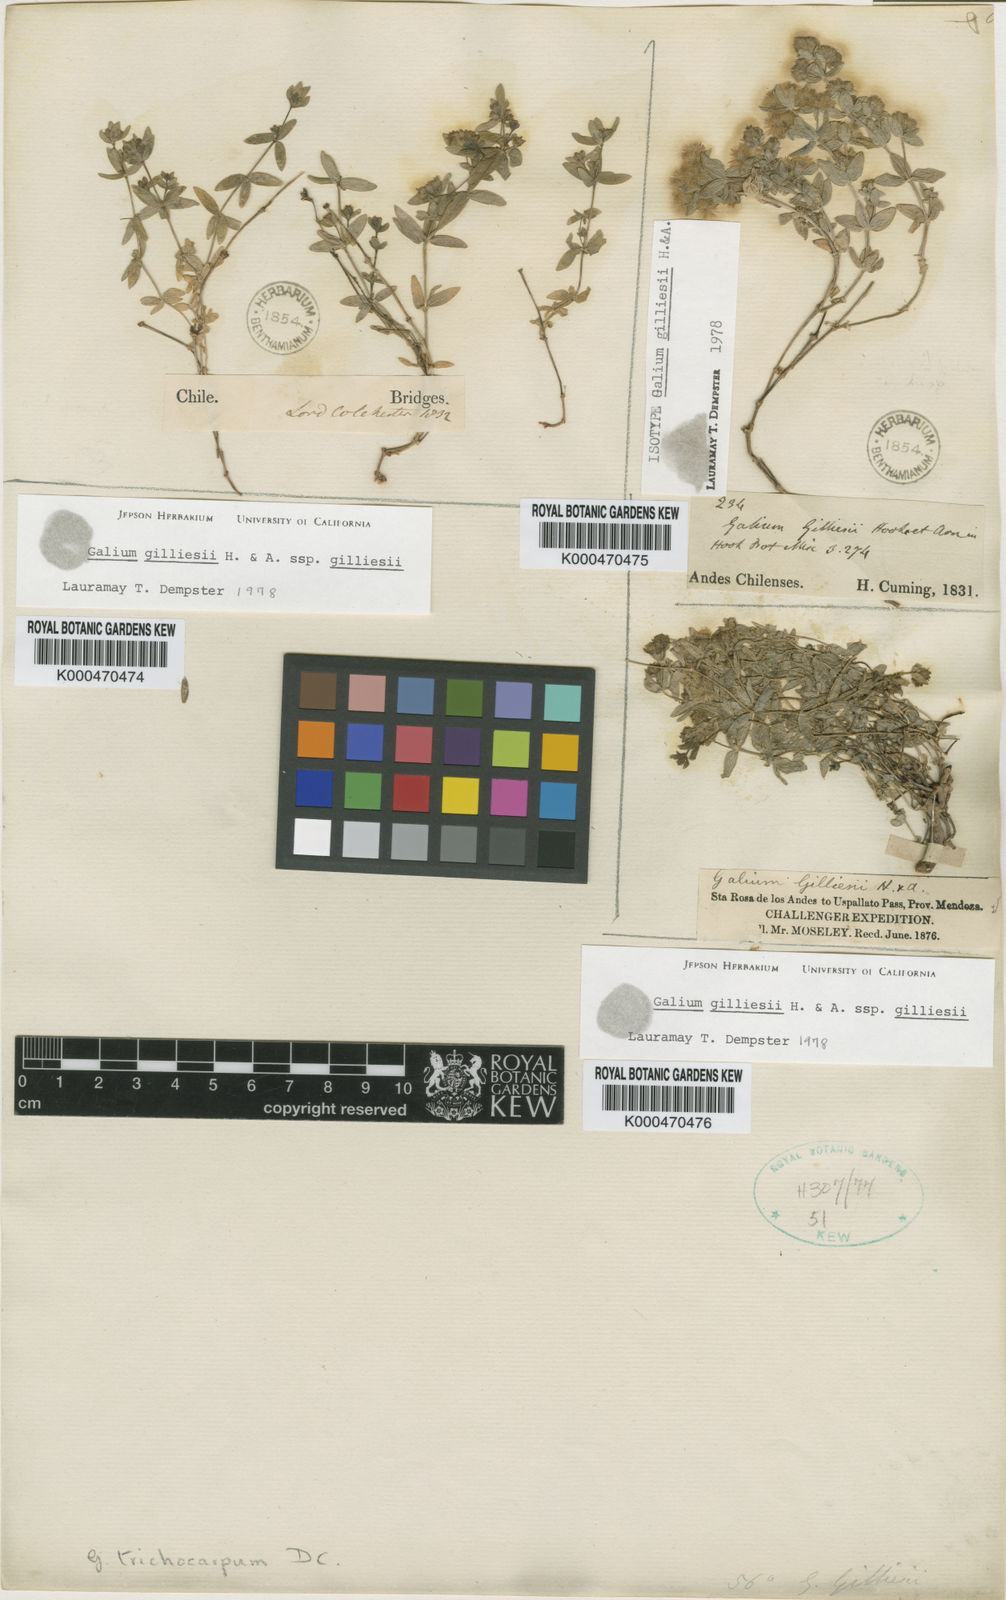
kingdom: Plantae
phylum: Tracheophyta
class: Magnoliopsida
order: Gentianales
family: Rubiaceae
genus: Galium
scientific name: Galium gilliesii
